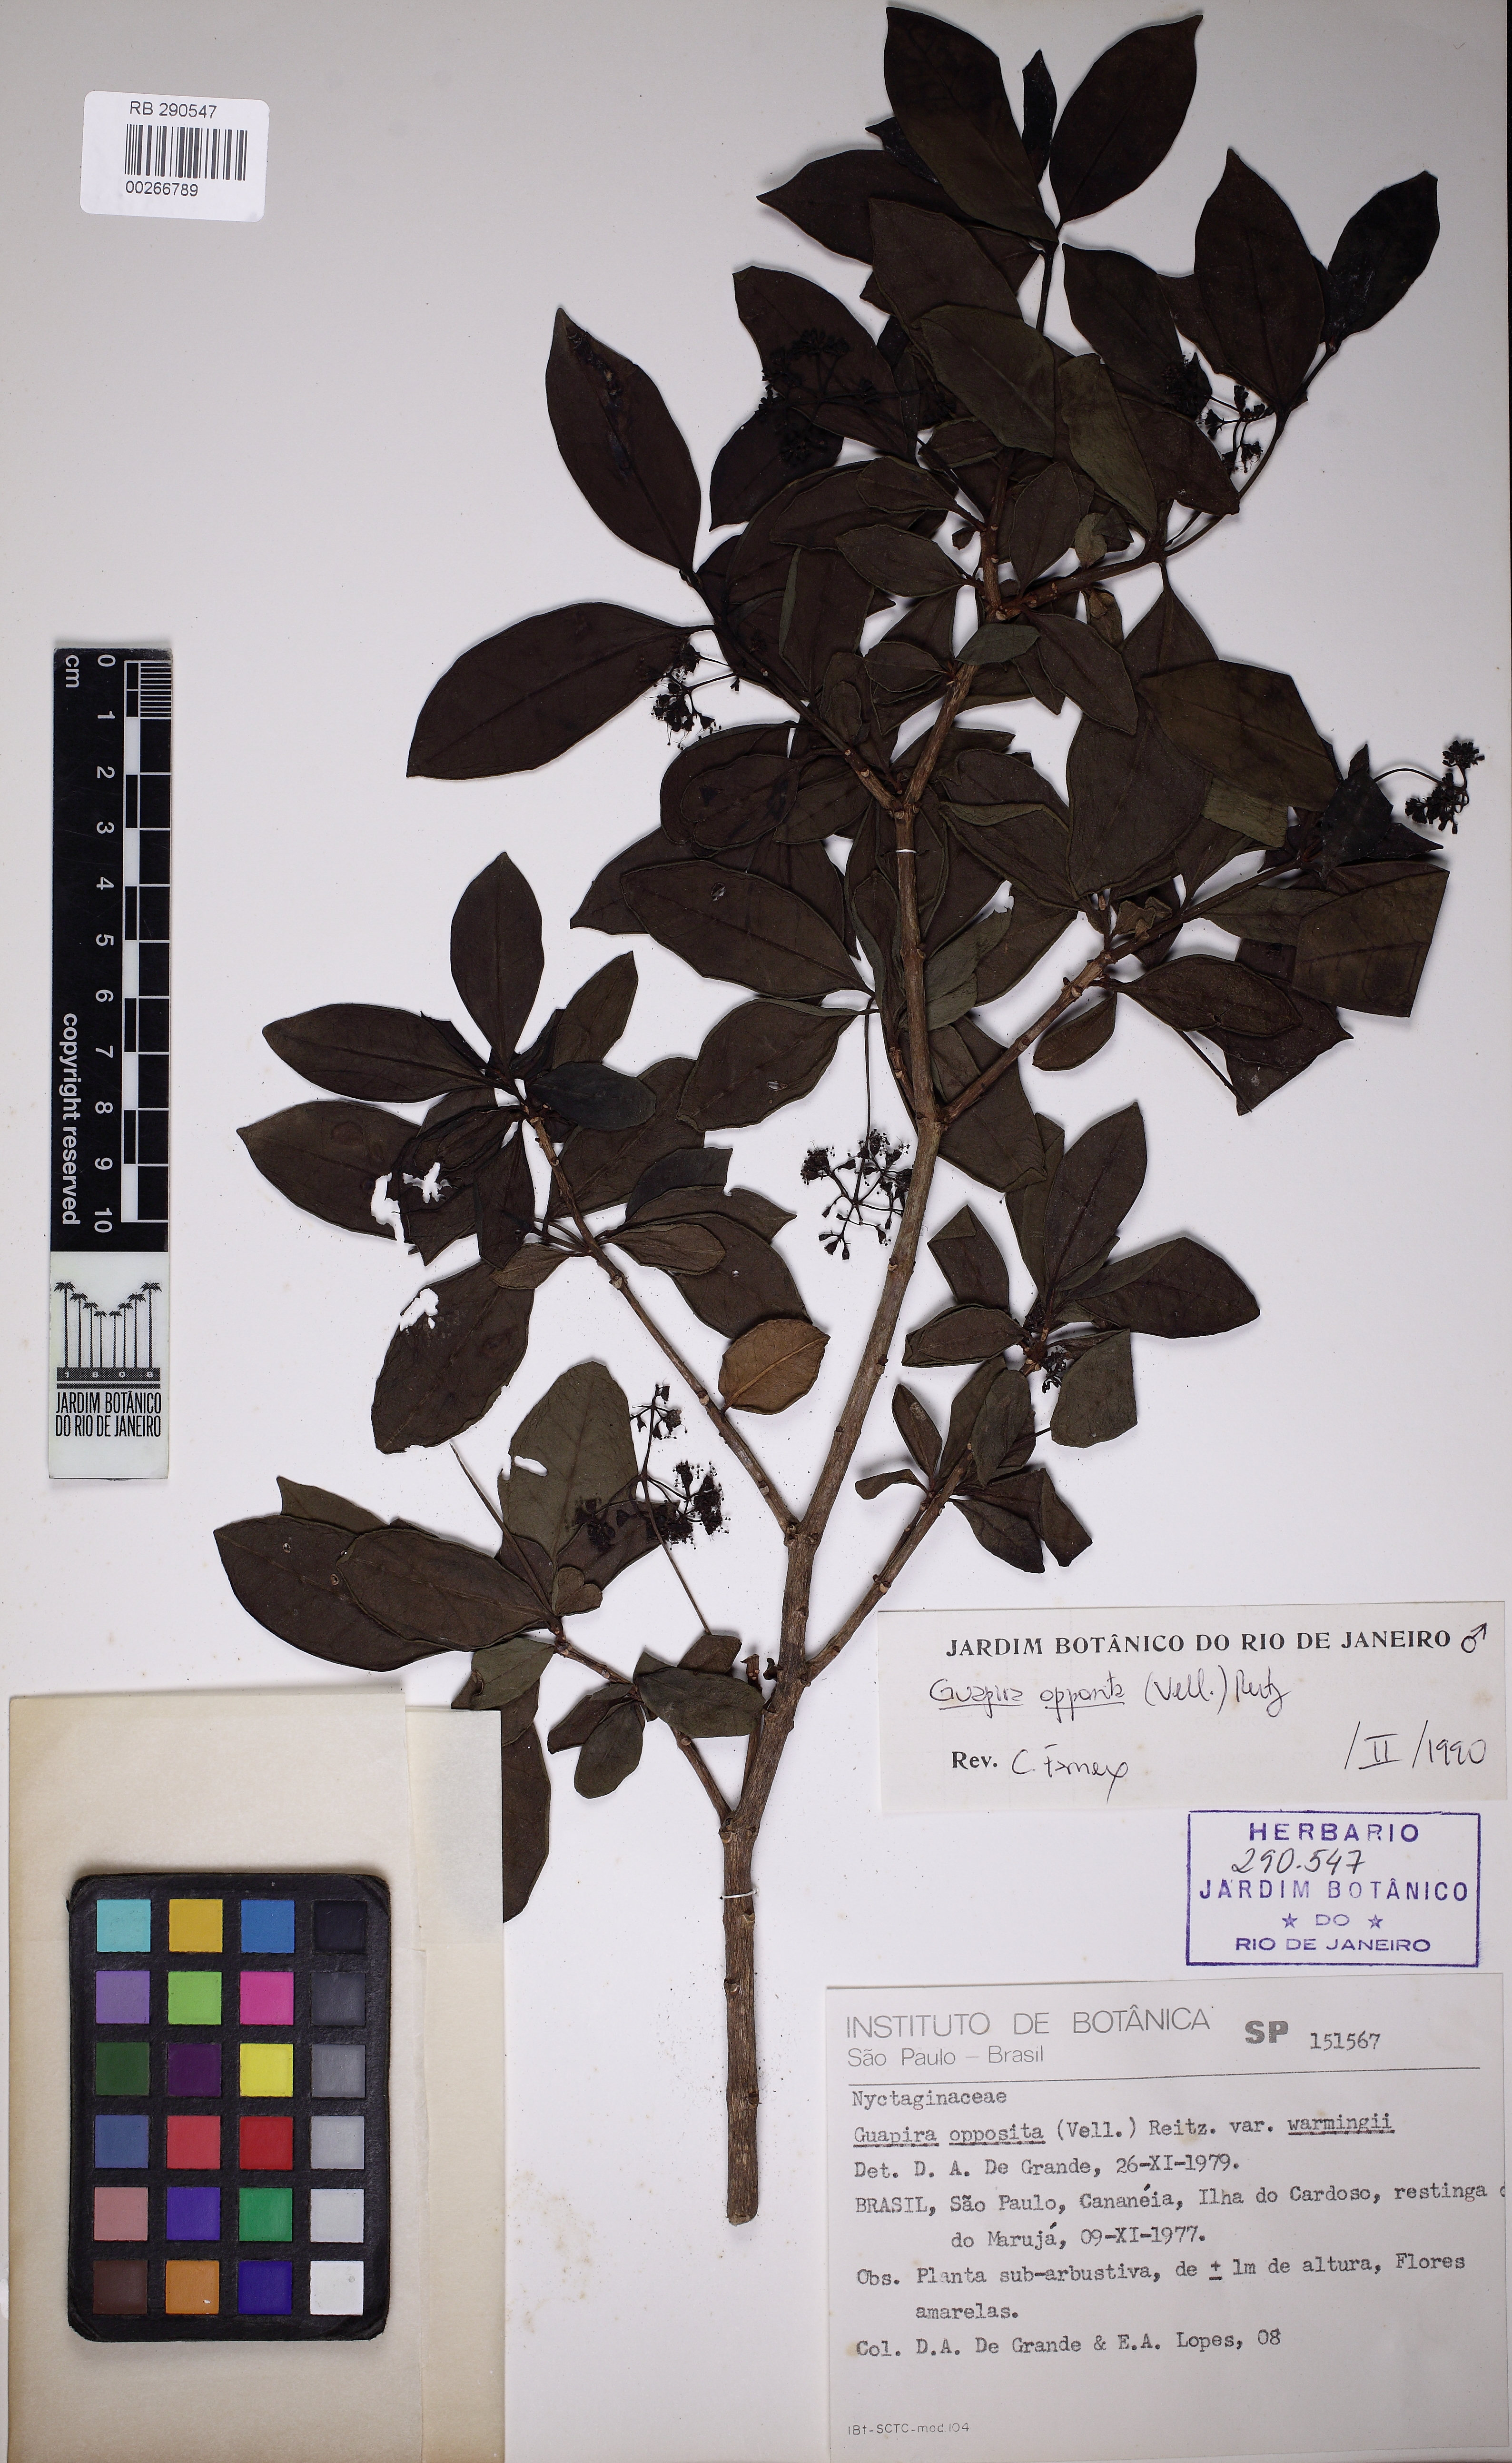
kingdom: Plantae
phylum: Tracheophyta
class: Magnoliopsida
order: Caryophyllales
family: Nyctaginaceae
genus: Guapira
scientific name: Guapira opposita
